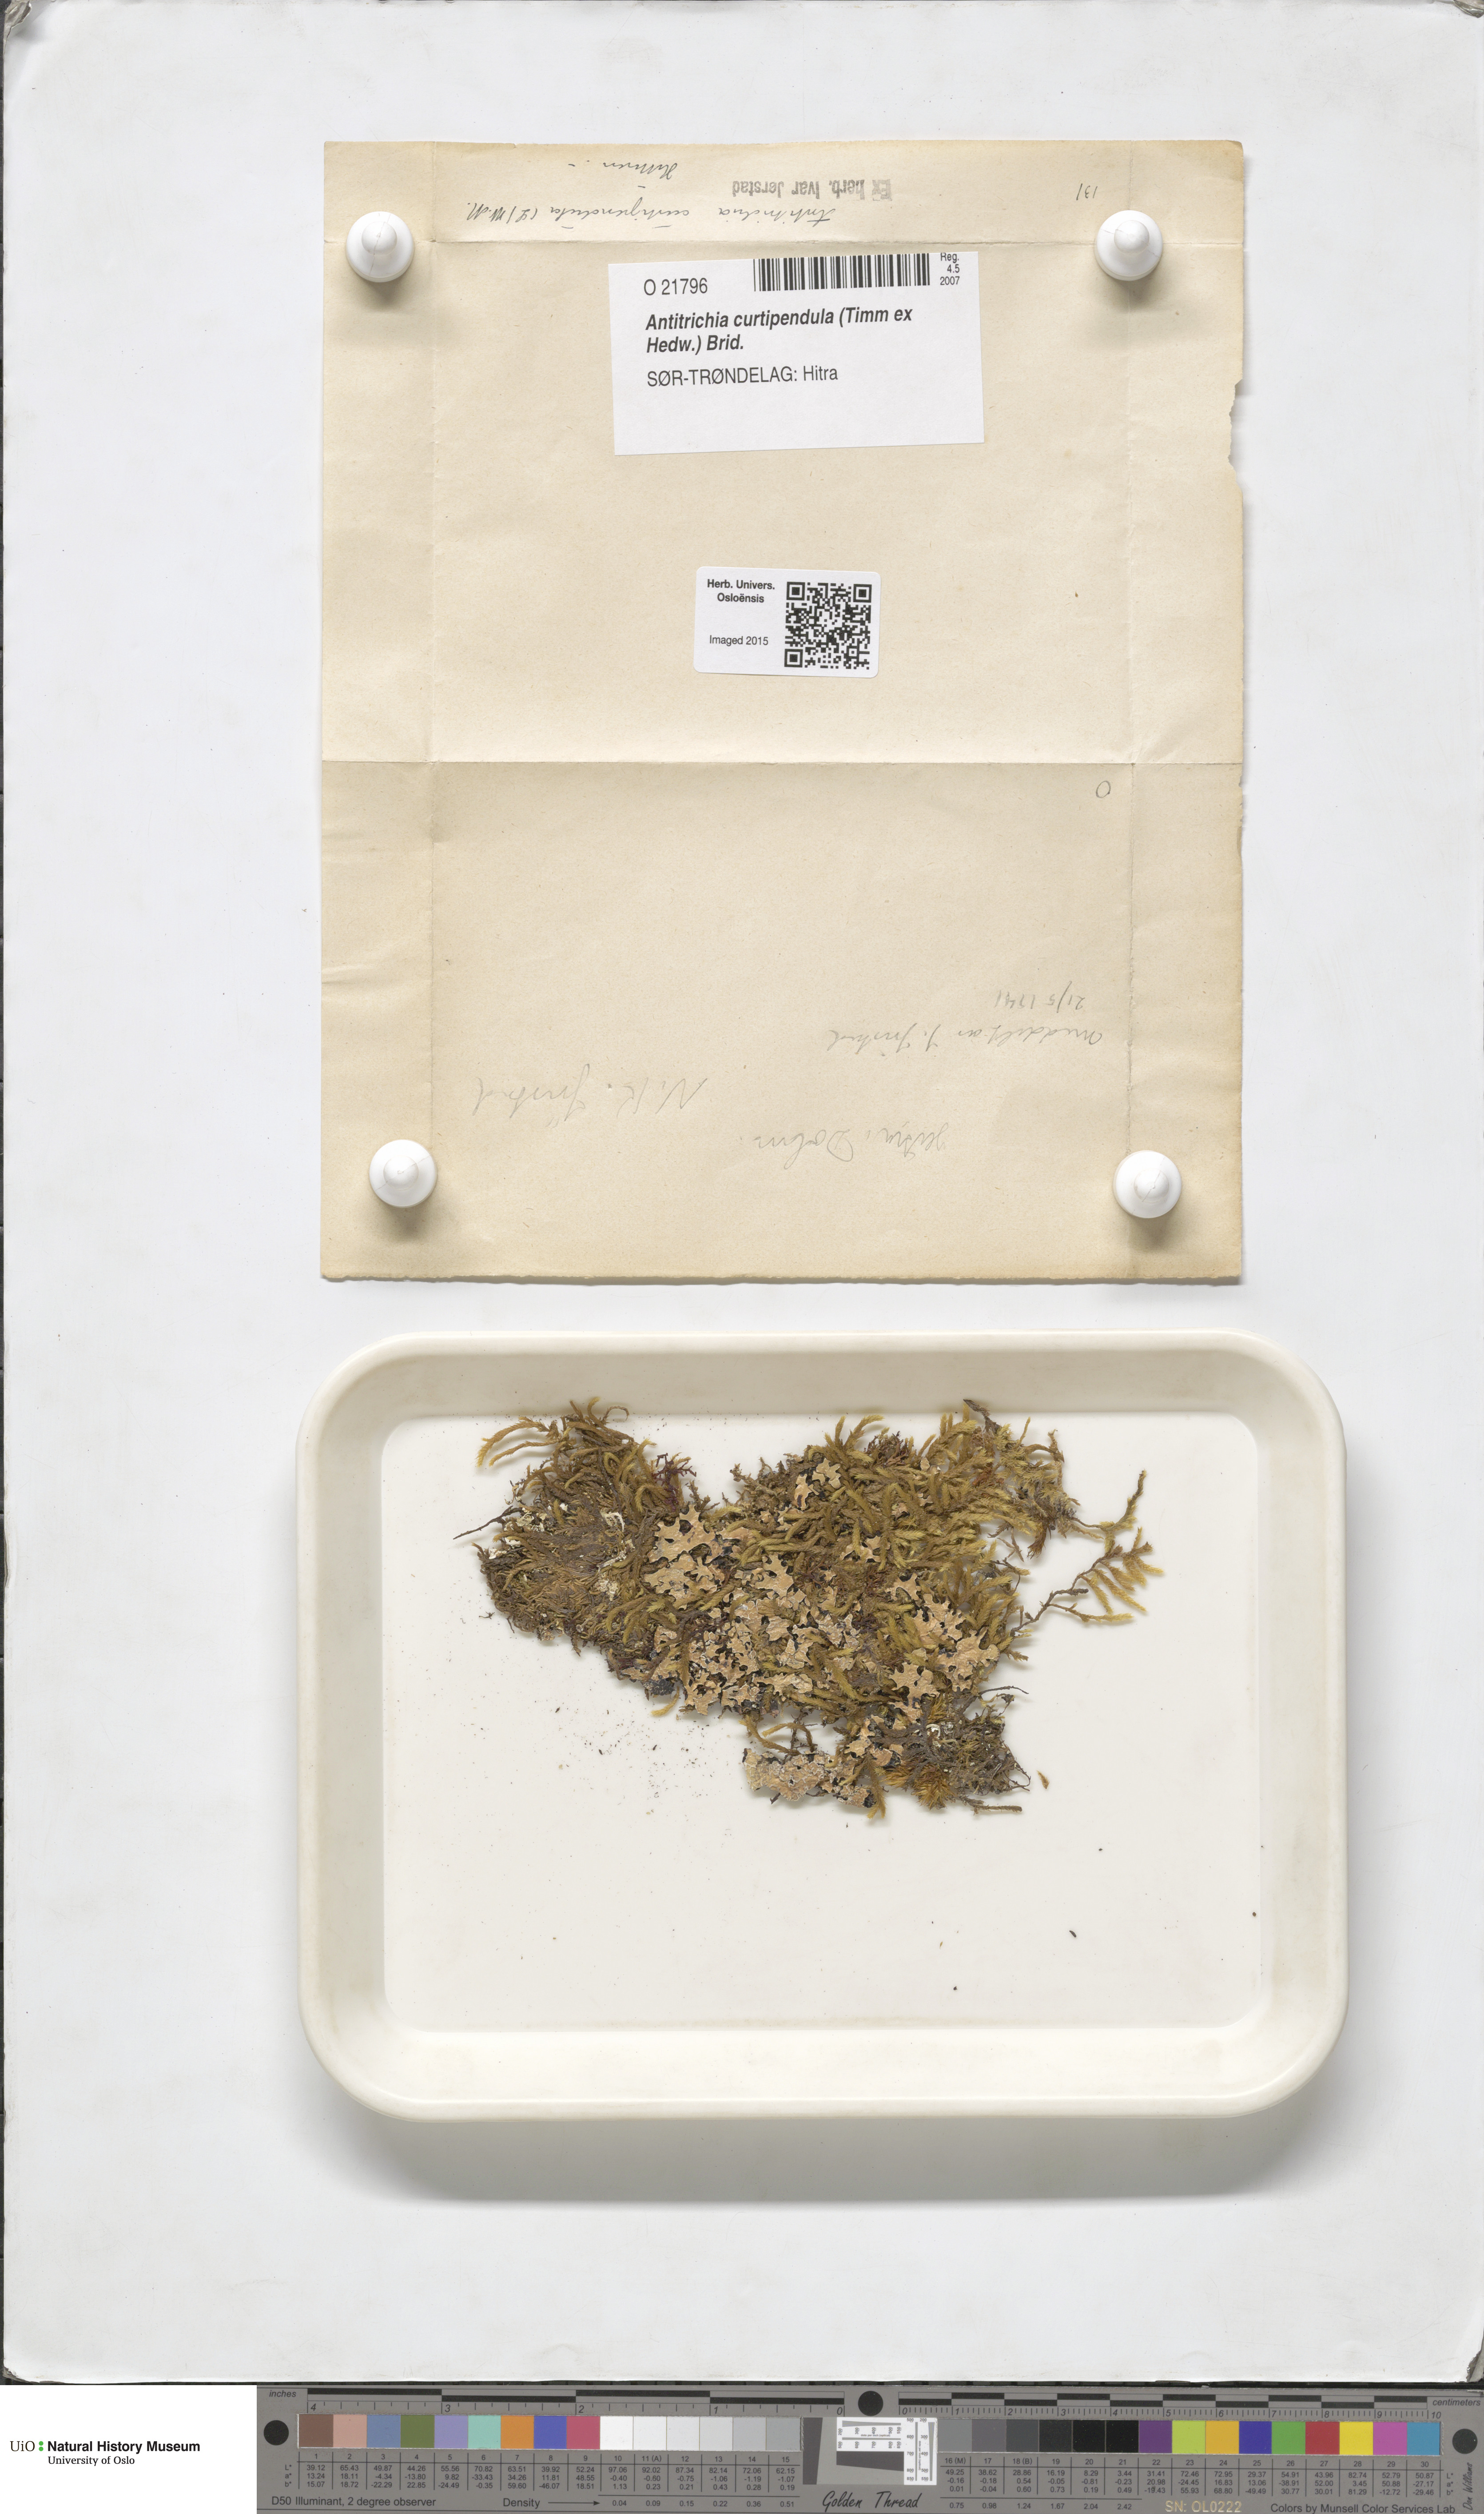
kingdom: Plantae
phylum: Bryophyta
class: Bryopsida
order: Hypnales
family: Antitrichiaceae
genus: Antitrichia
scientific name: Antitrichia curtipendula
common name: Pendulous wing-moss
